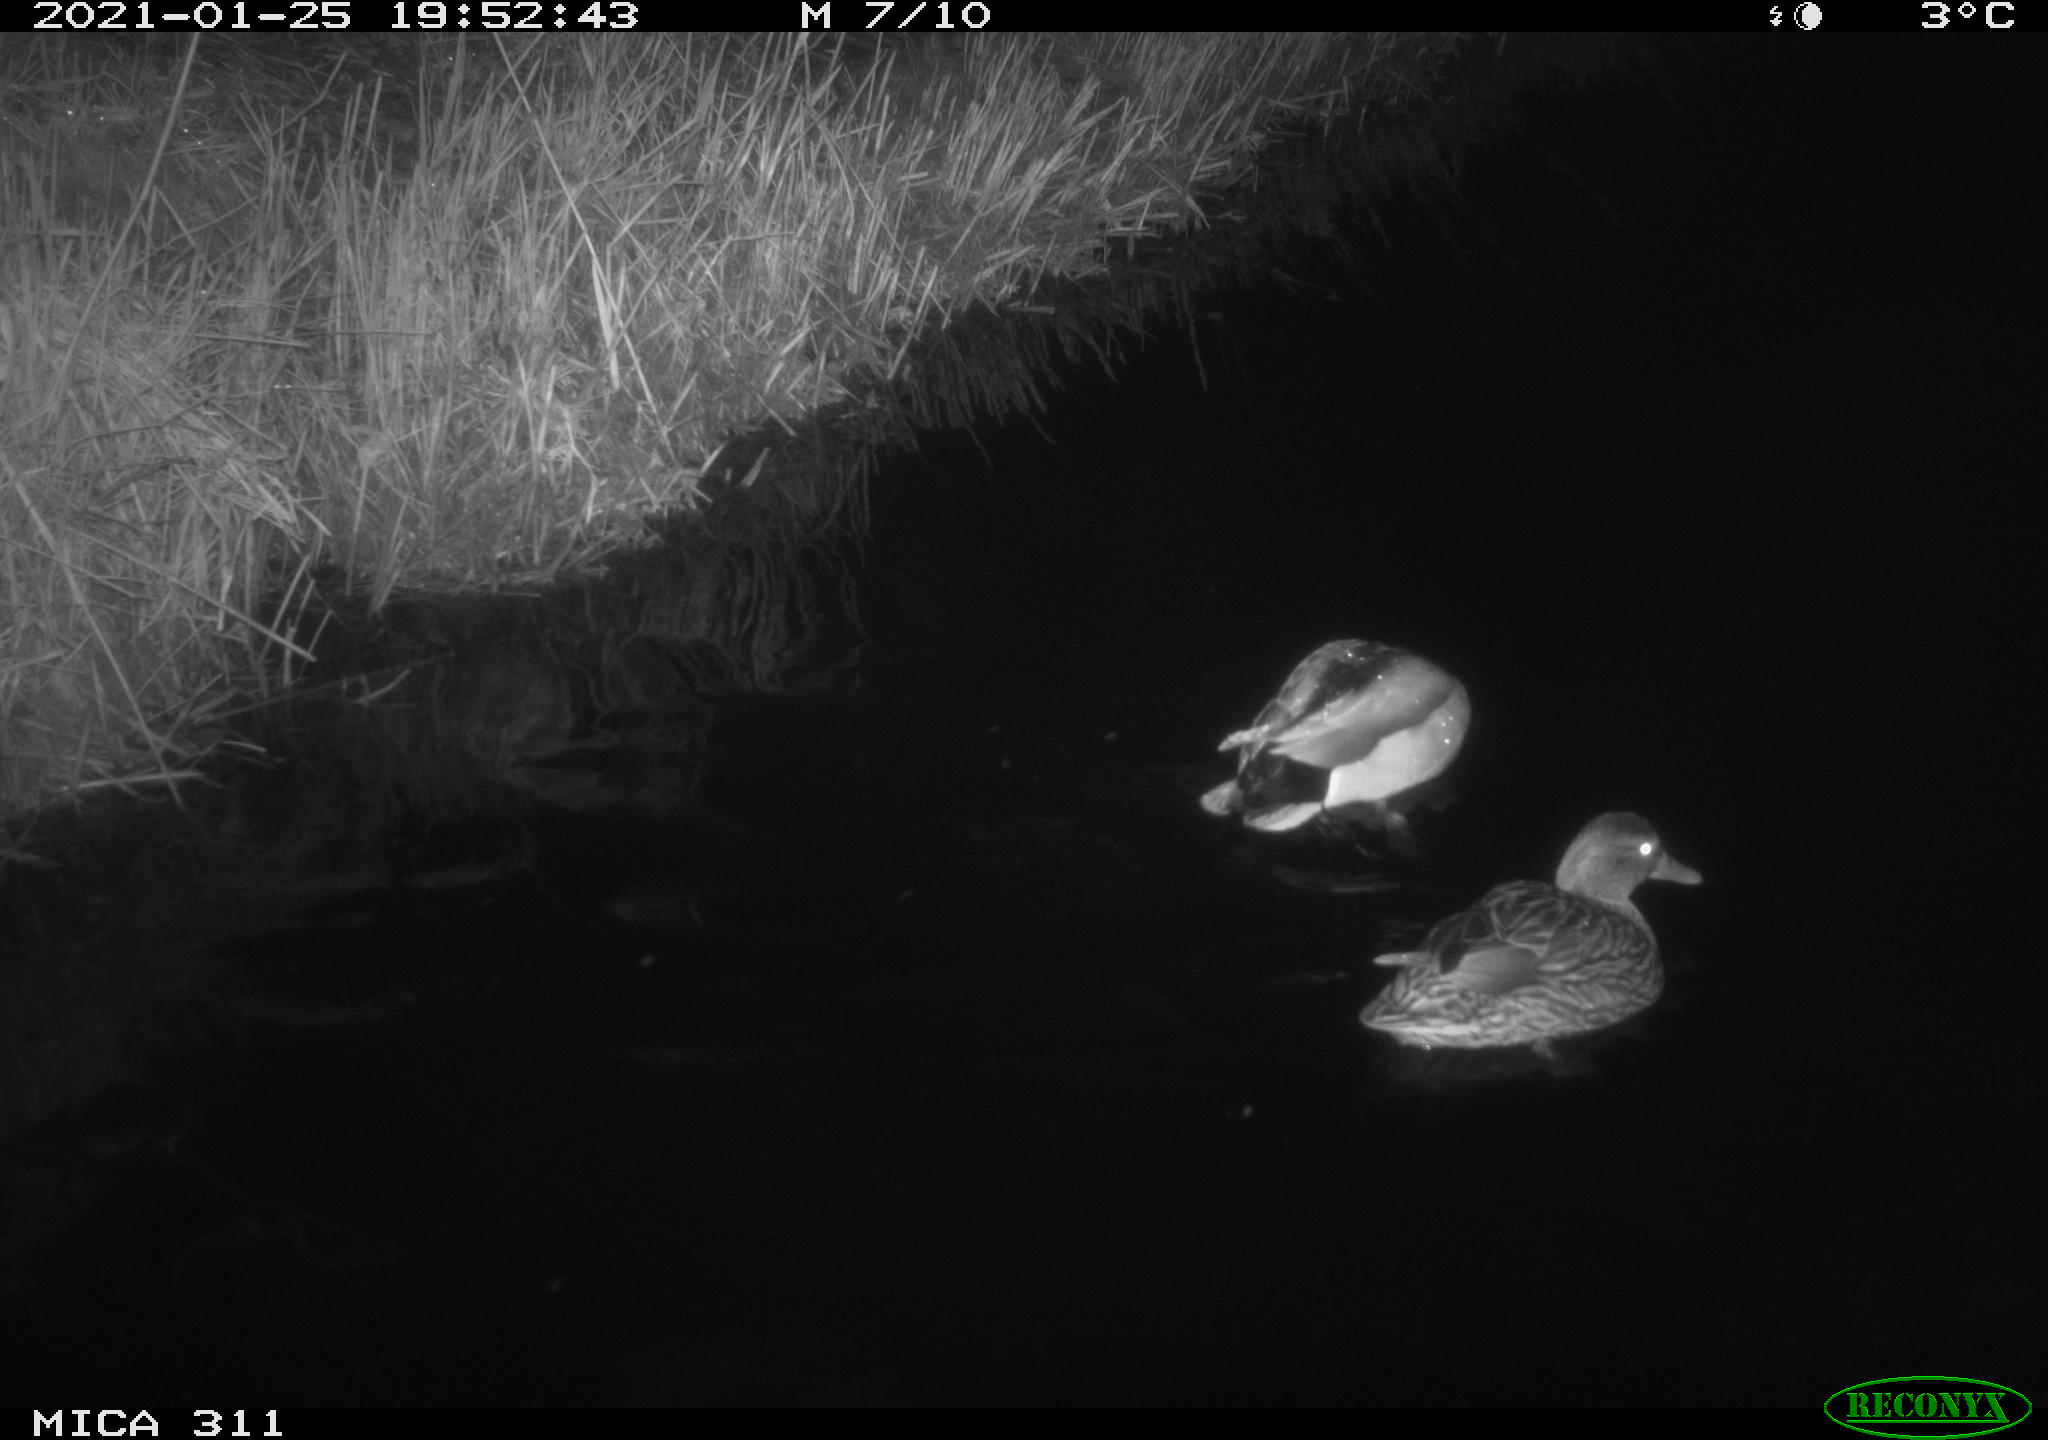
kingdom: Animalia
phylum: Chordata
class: Aves
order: Anseriformes
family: Anatidae
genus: Anas
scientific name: Anas
